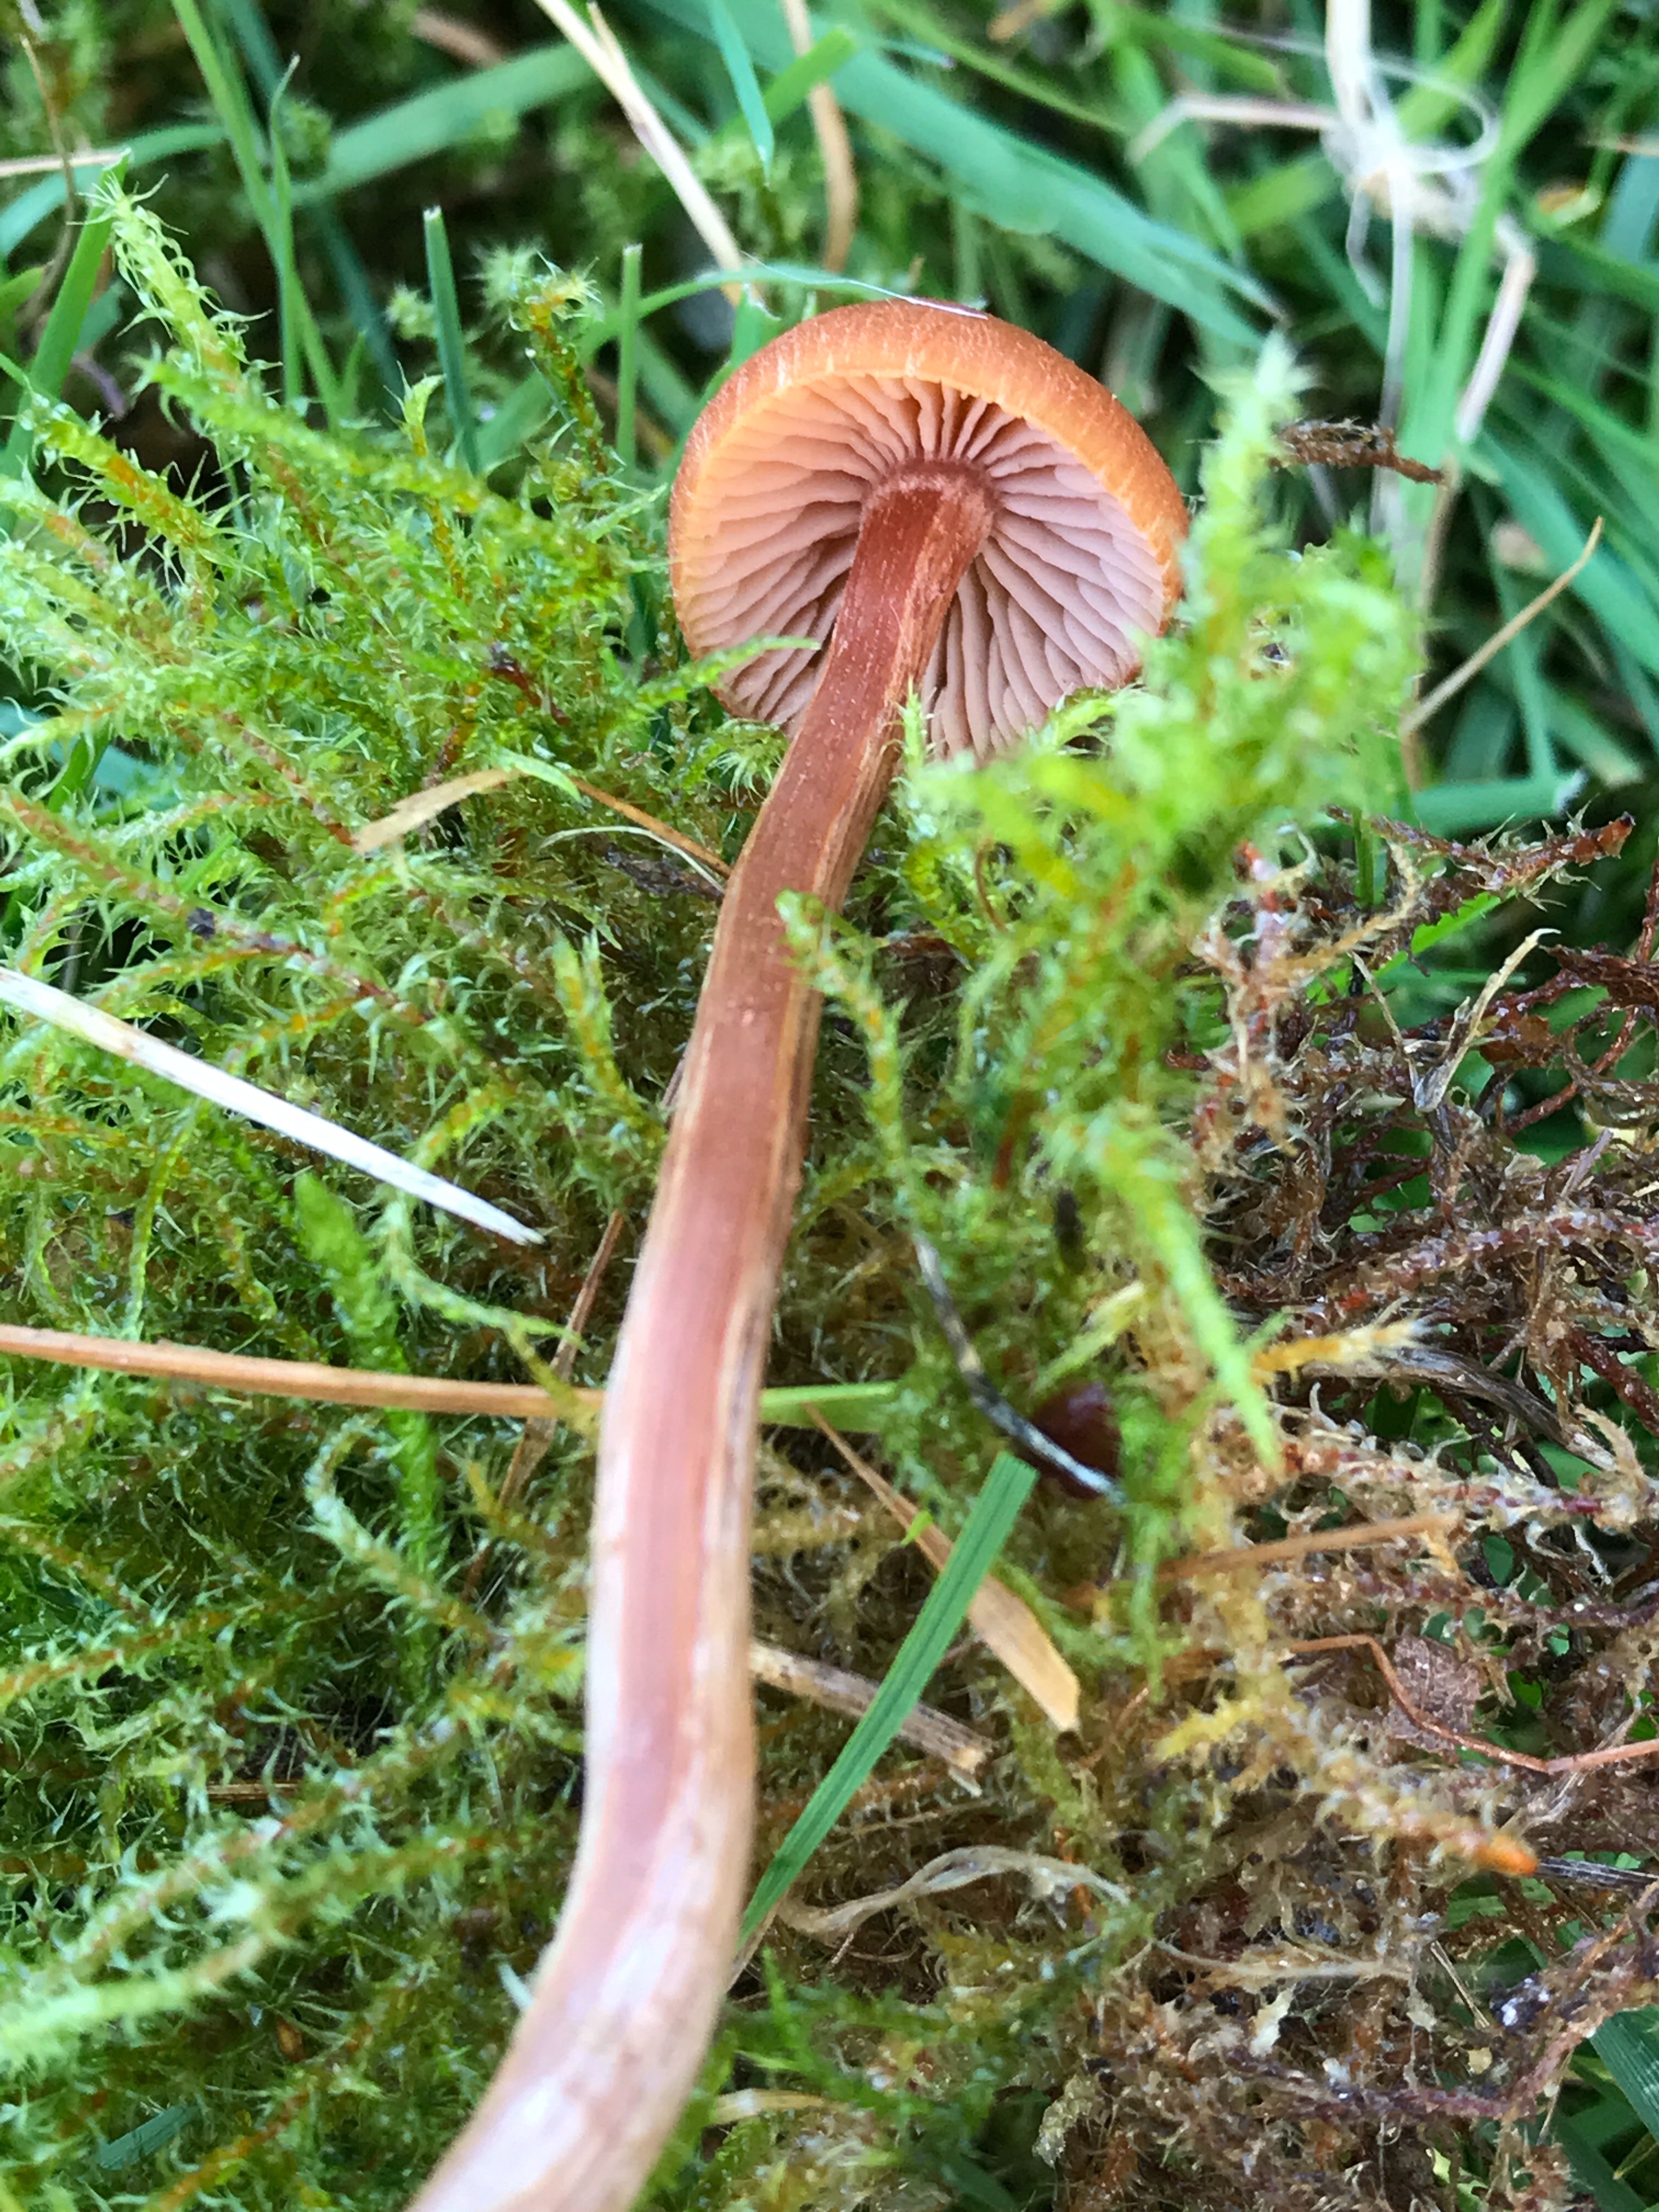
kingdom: Fungi
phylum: Basidiomycota
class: Agaricomycetes
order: Agaricales
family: Hydnangiaceae
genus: Laccaria
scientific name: Laccaria
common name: ametysthat
